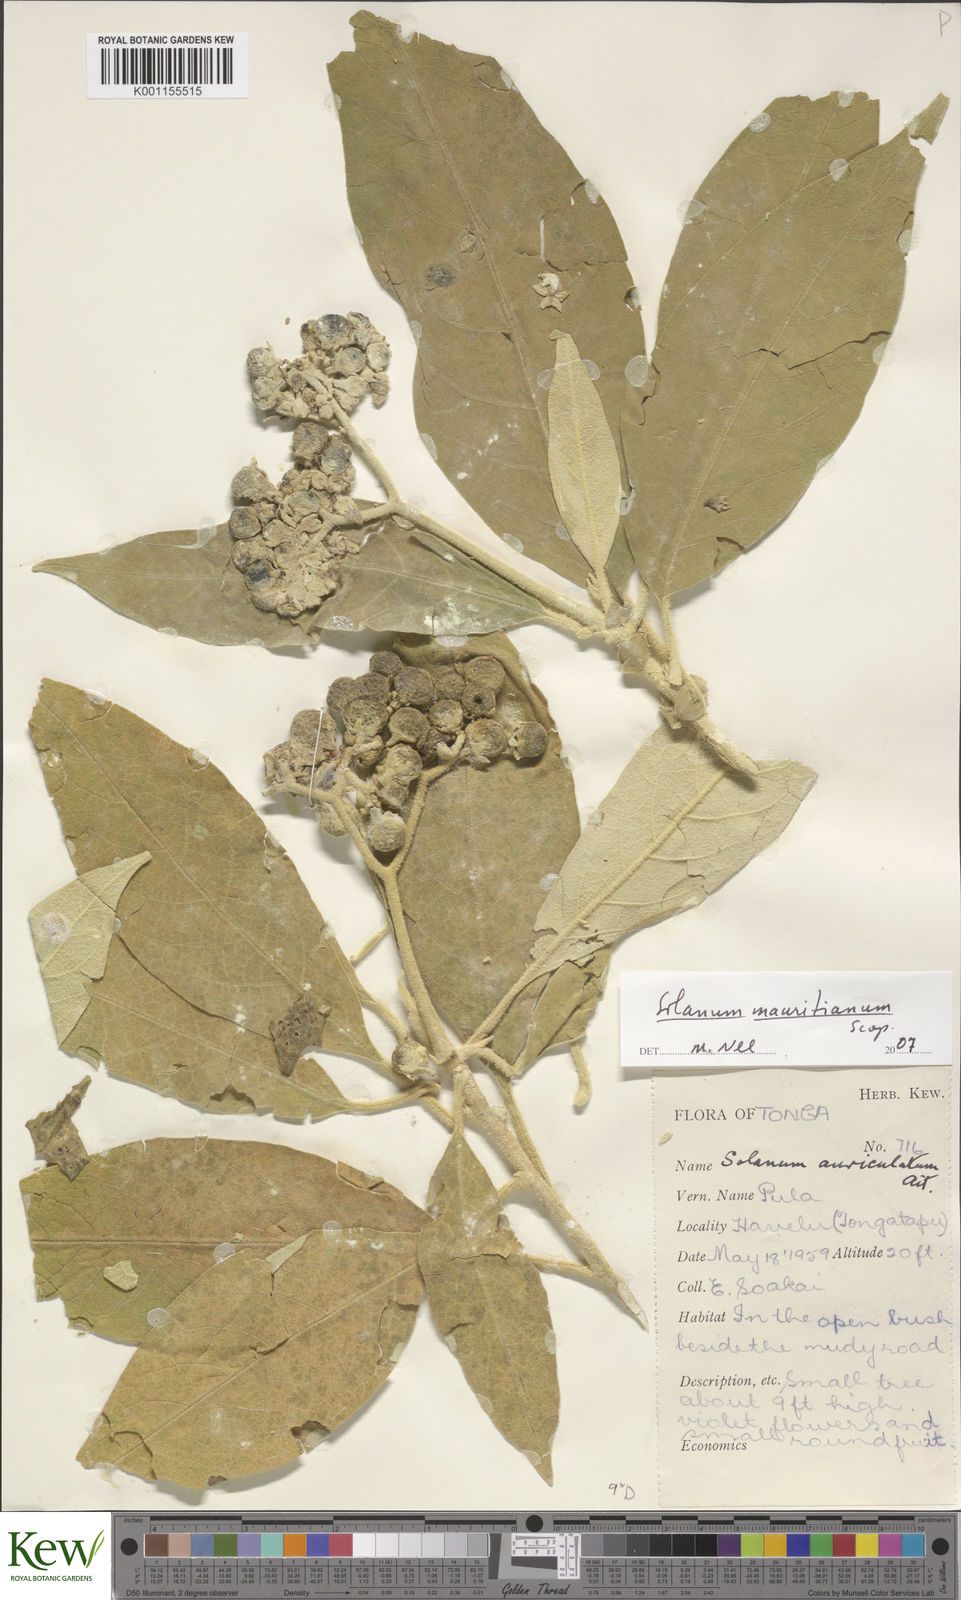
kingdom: Plantae
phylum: Tracheophyta
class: Magnoliopsida
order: Solanales
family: Solanaceae
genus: Solanum
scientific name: Solanum mauritianum
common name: Earleaf nightshade
